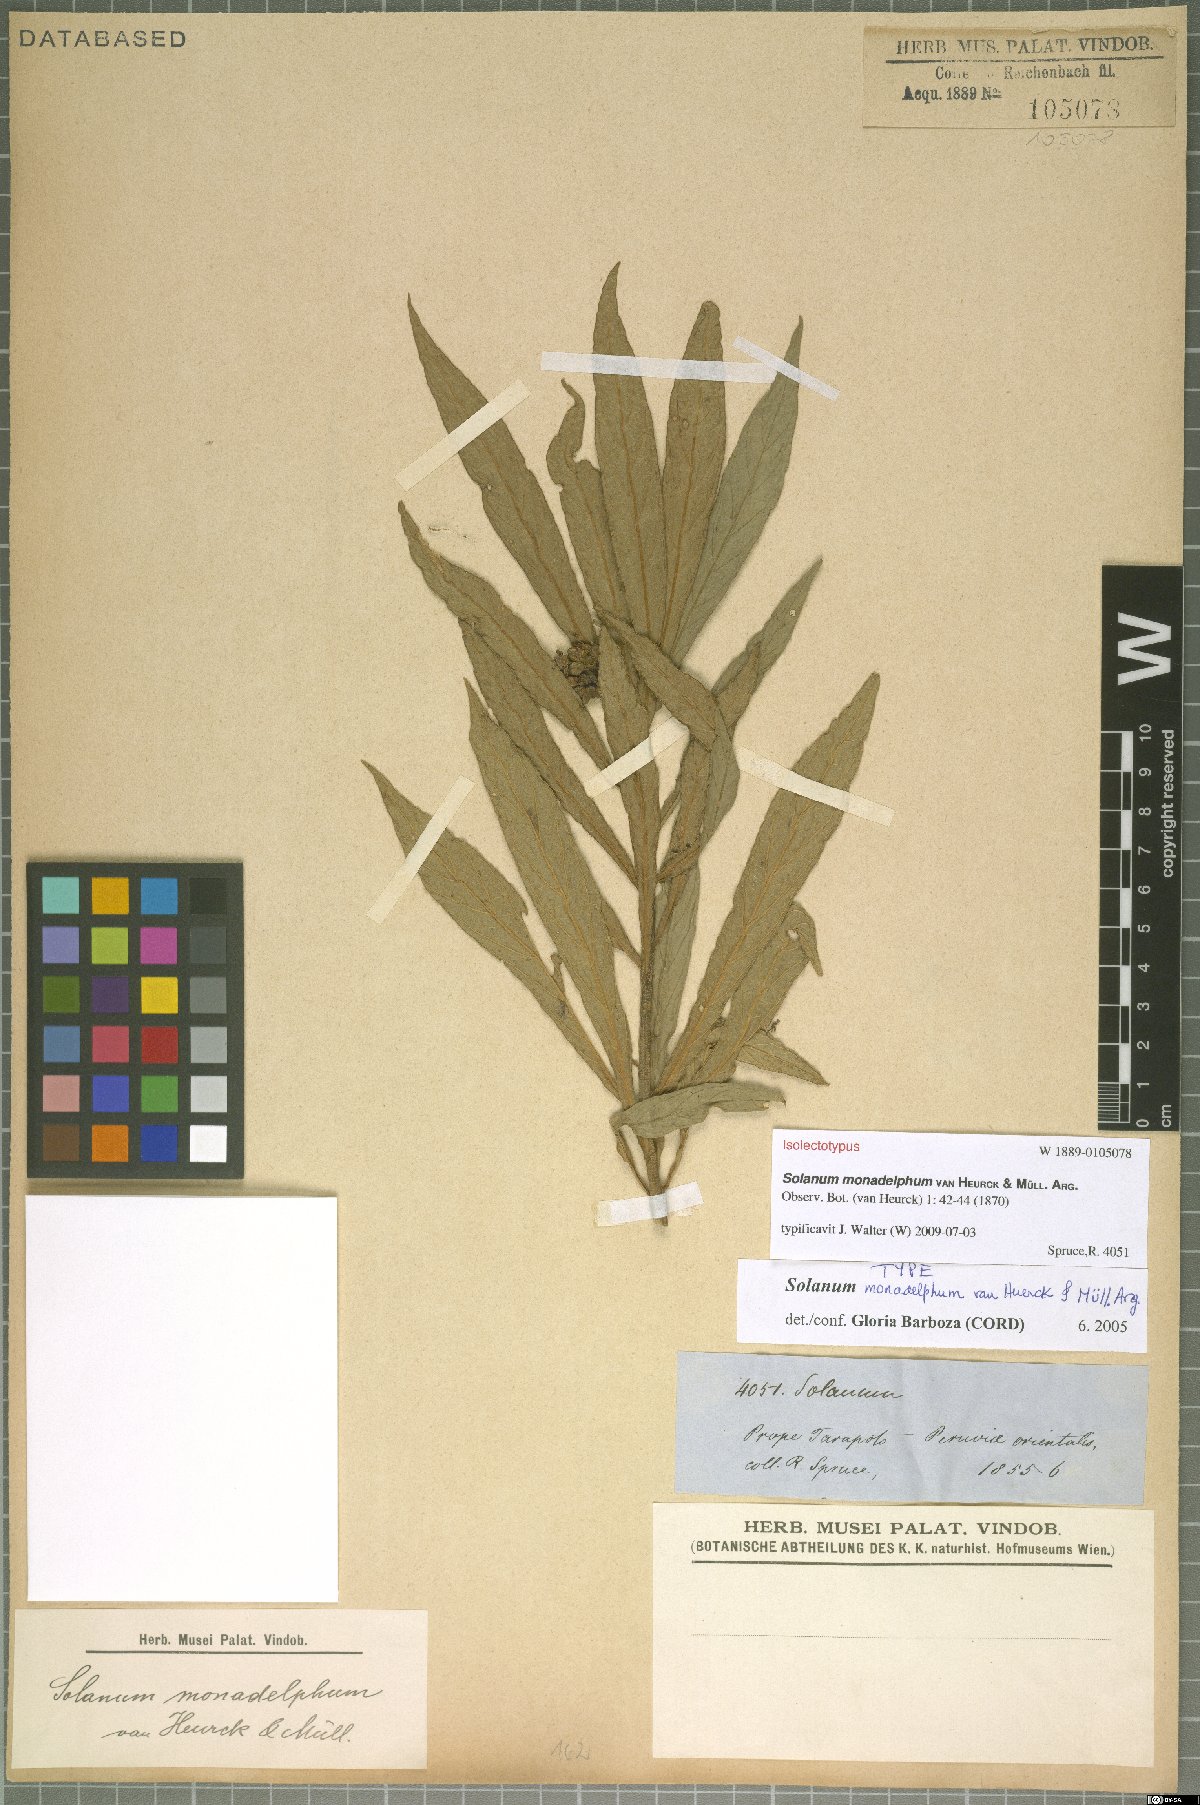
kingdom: Plantae
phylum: Tracheophyta
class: Magnoliopsida
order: Solanales
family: Solanaceae
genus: Solanum
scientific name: Solanum monadelphum
